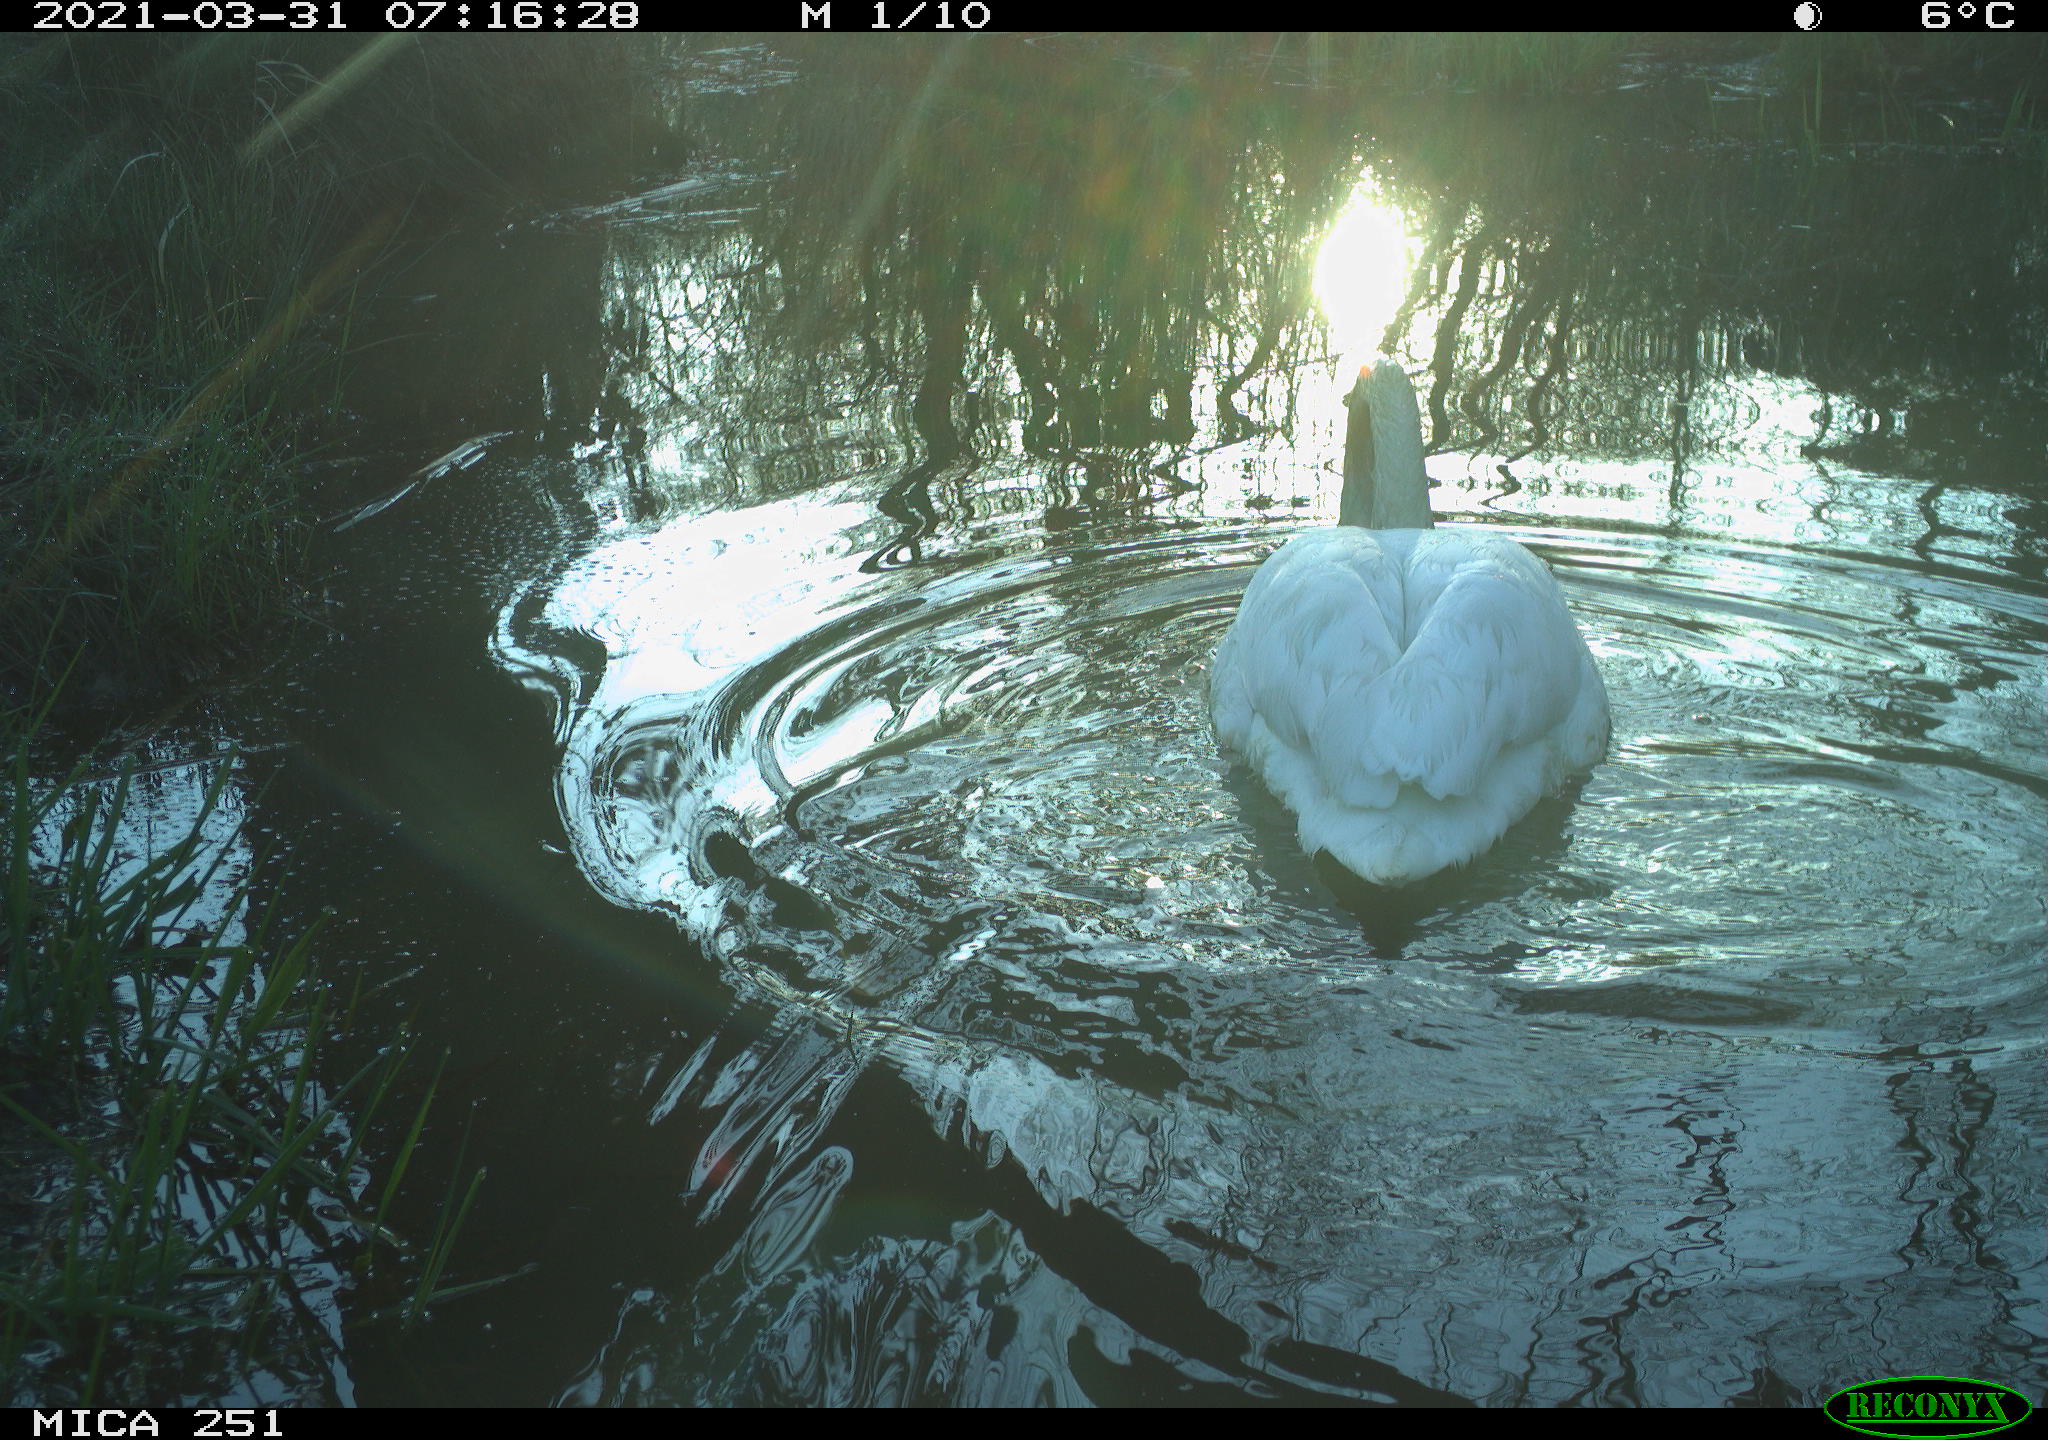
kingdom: Animalia
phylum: Chordata
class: Aves
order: Pelecaniformes
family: Ardeidae
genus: Ardea
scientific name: Ardea
